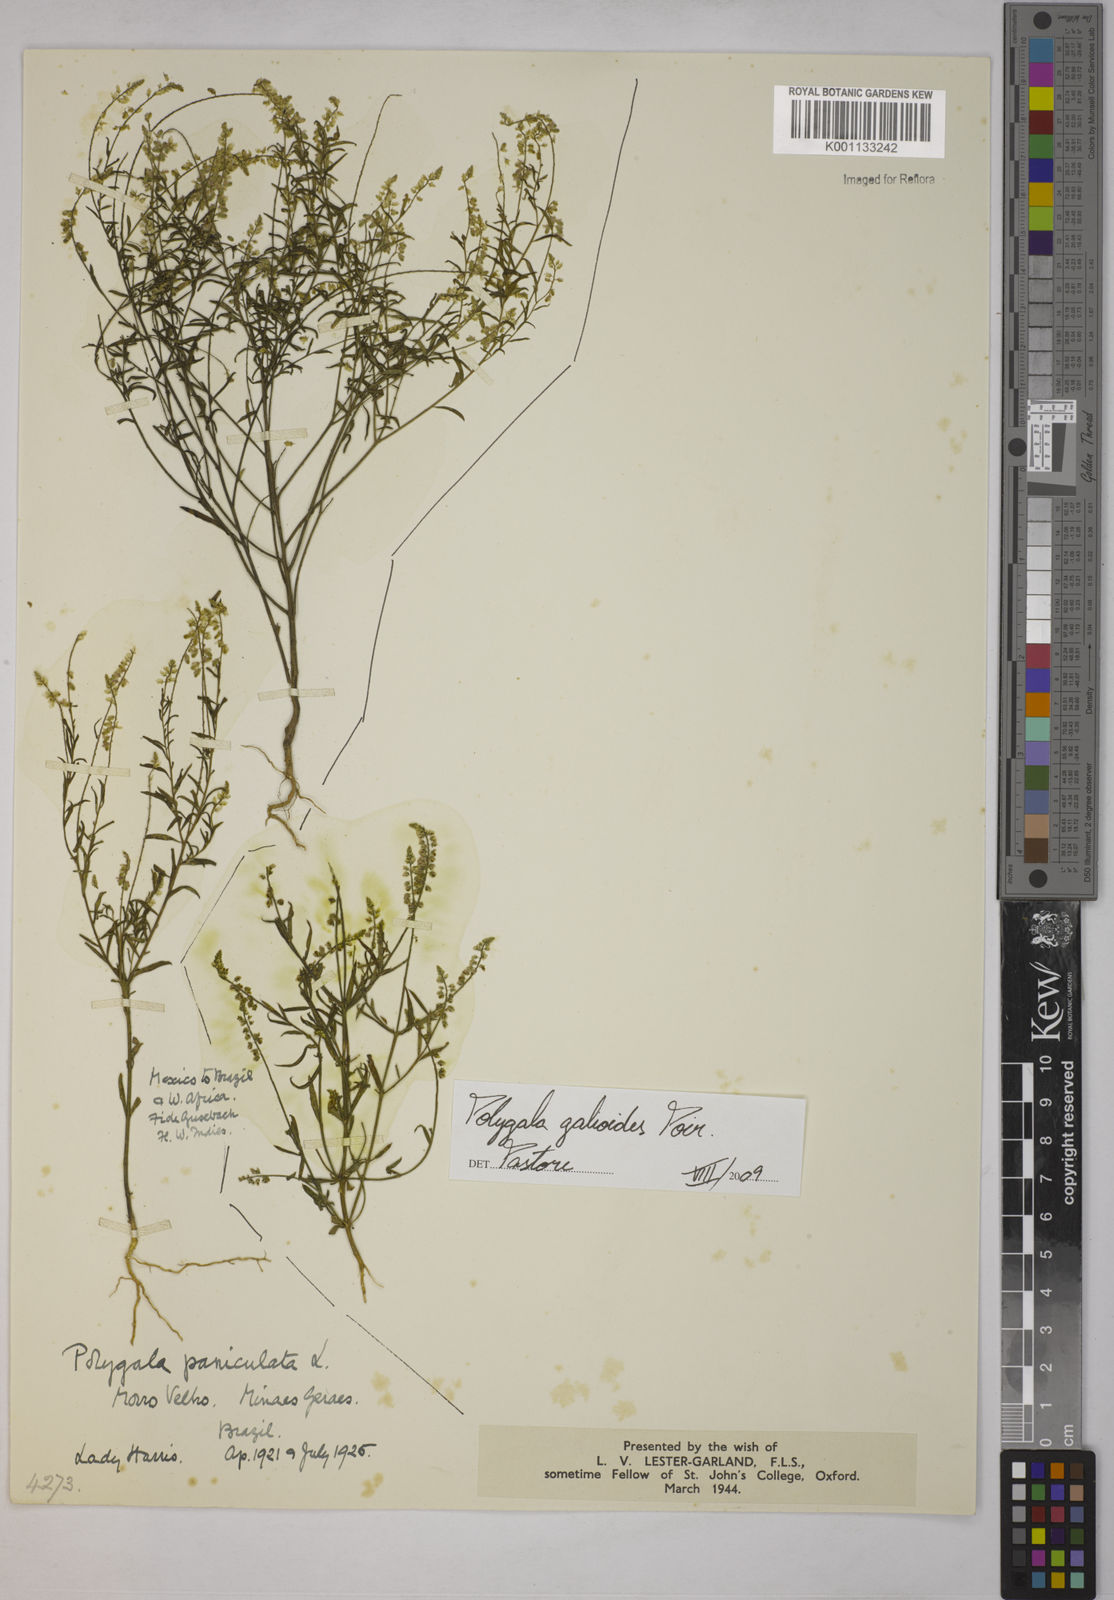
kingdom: Plantae
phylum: Tracheophyta
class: Magnoliopsida
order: Fabales
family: Polygalaceae
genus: Polygala
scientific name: Polygala galioides
